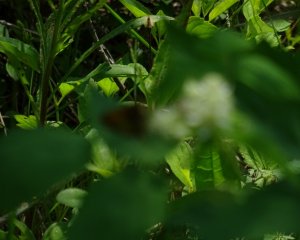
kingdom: Animalia
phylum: Arthropoda
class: Insecta
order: Lepidoptera
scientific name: Lepidoptera
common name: Butterflies
